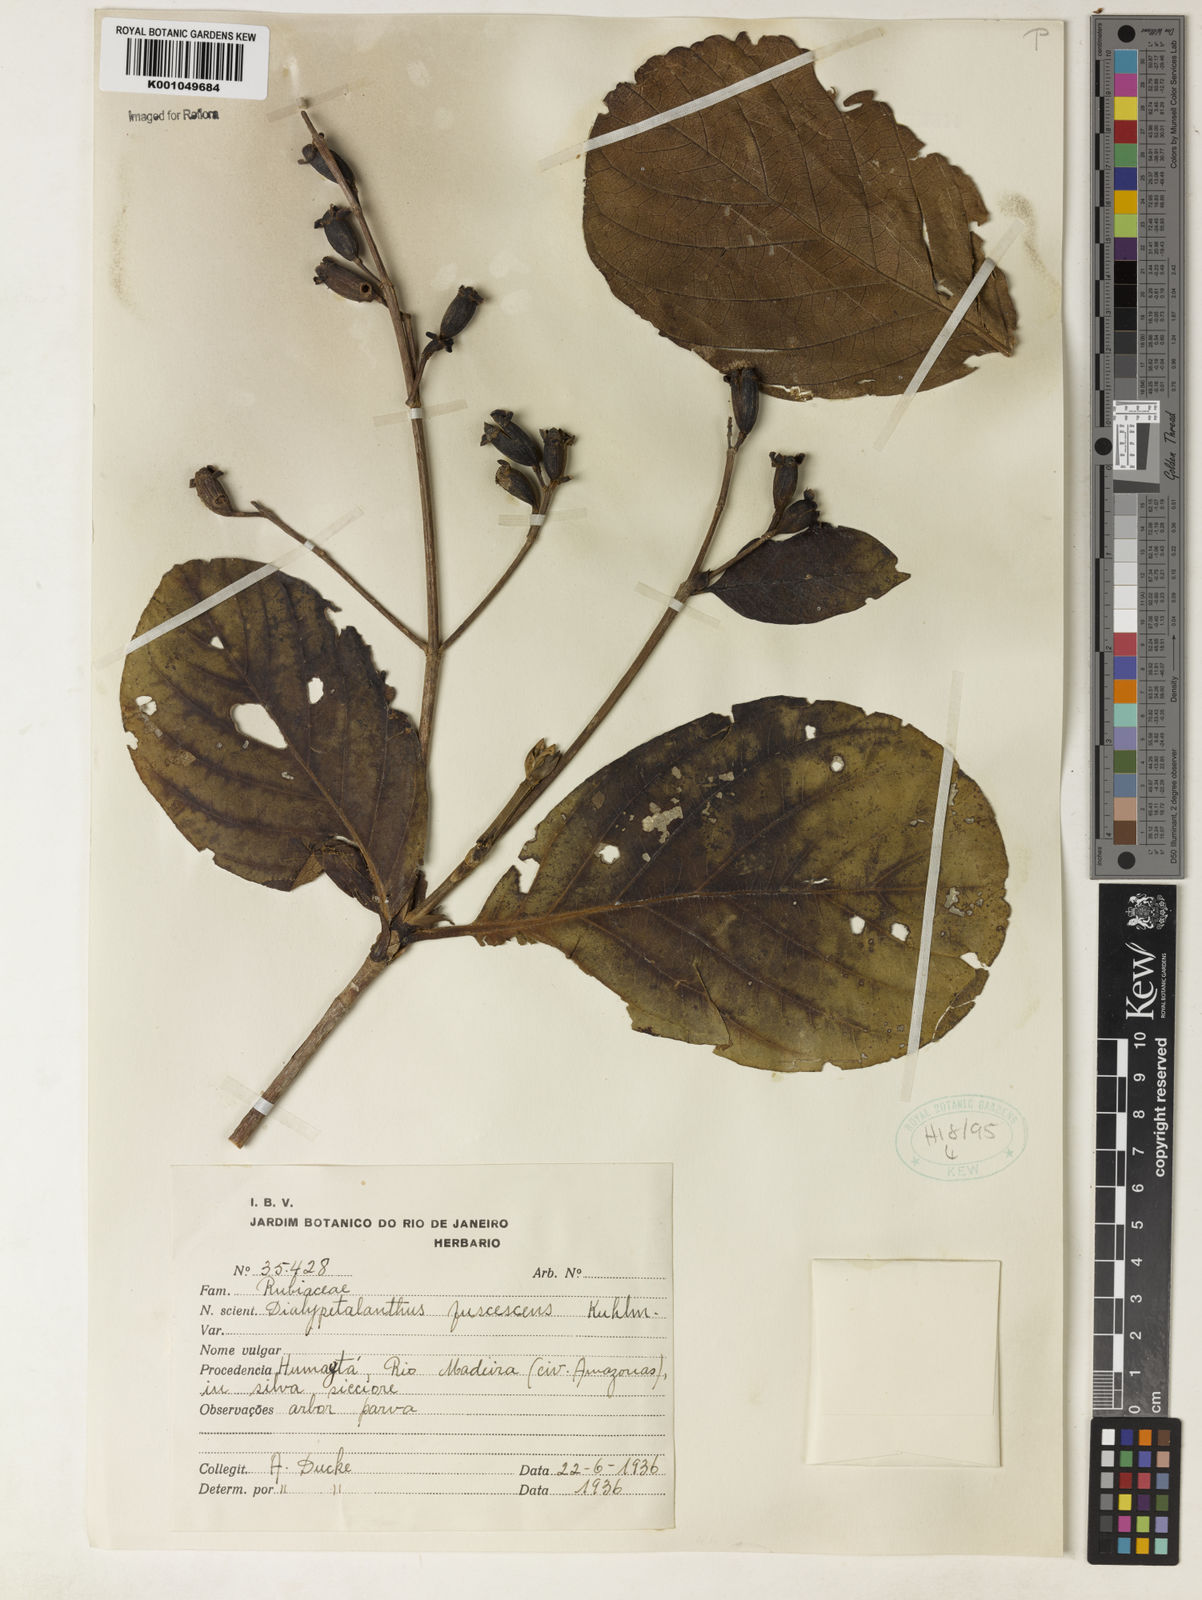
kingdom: Plantae
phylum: Tracheophyta
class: Magnoliopsida
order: Gentianales
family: Rubiaceae
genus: Dialypetalanthus
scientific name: Dialypetalanthus fuscescens
